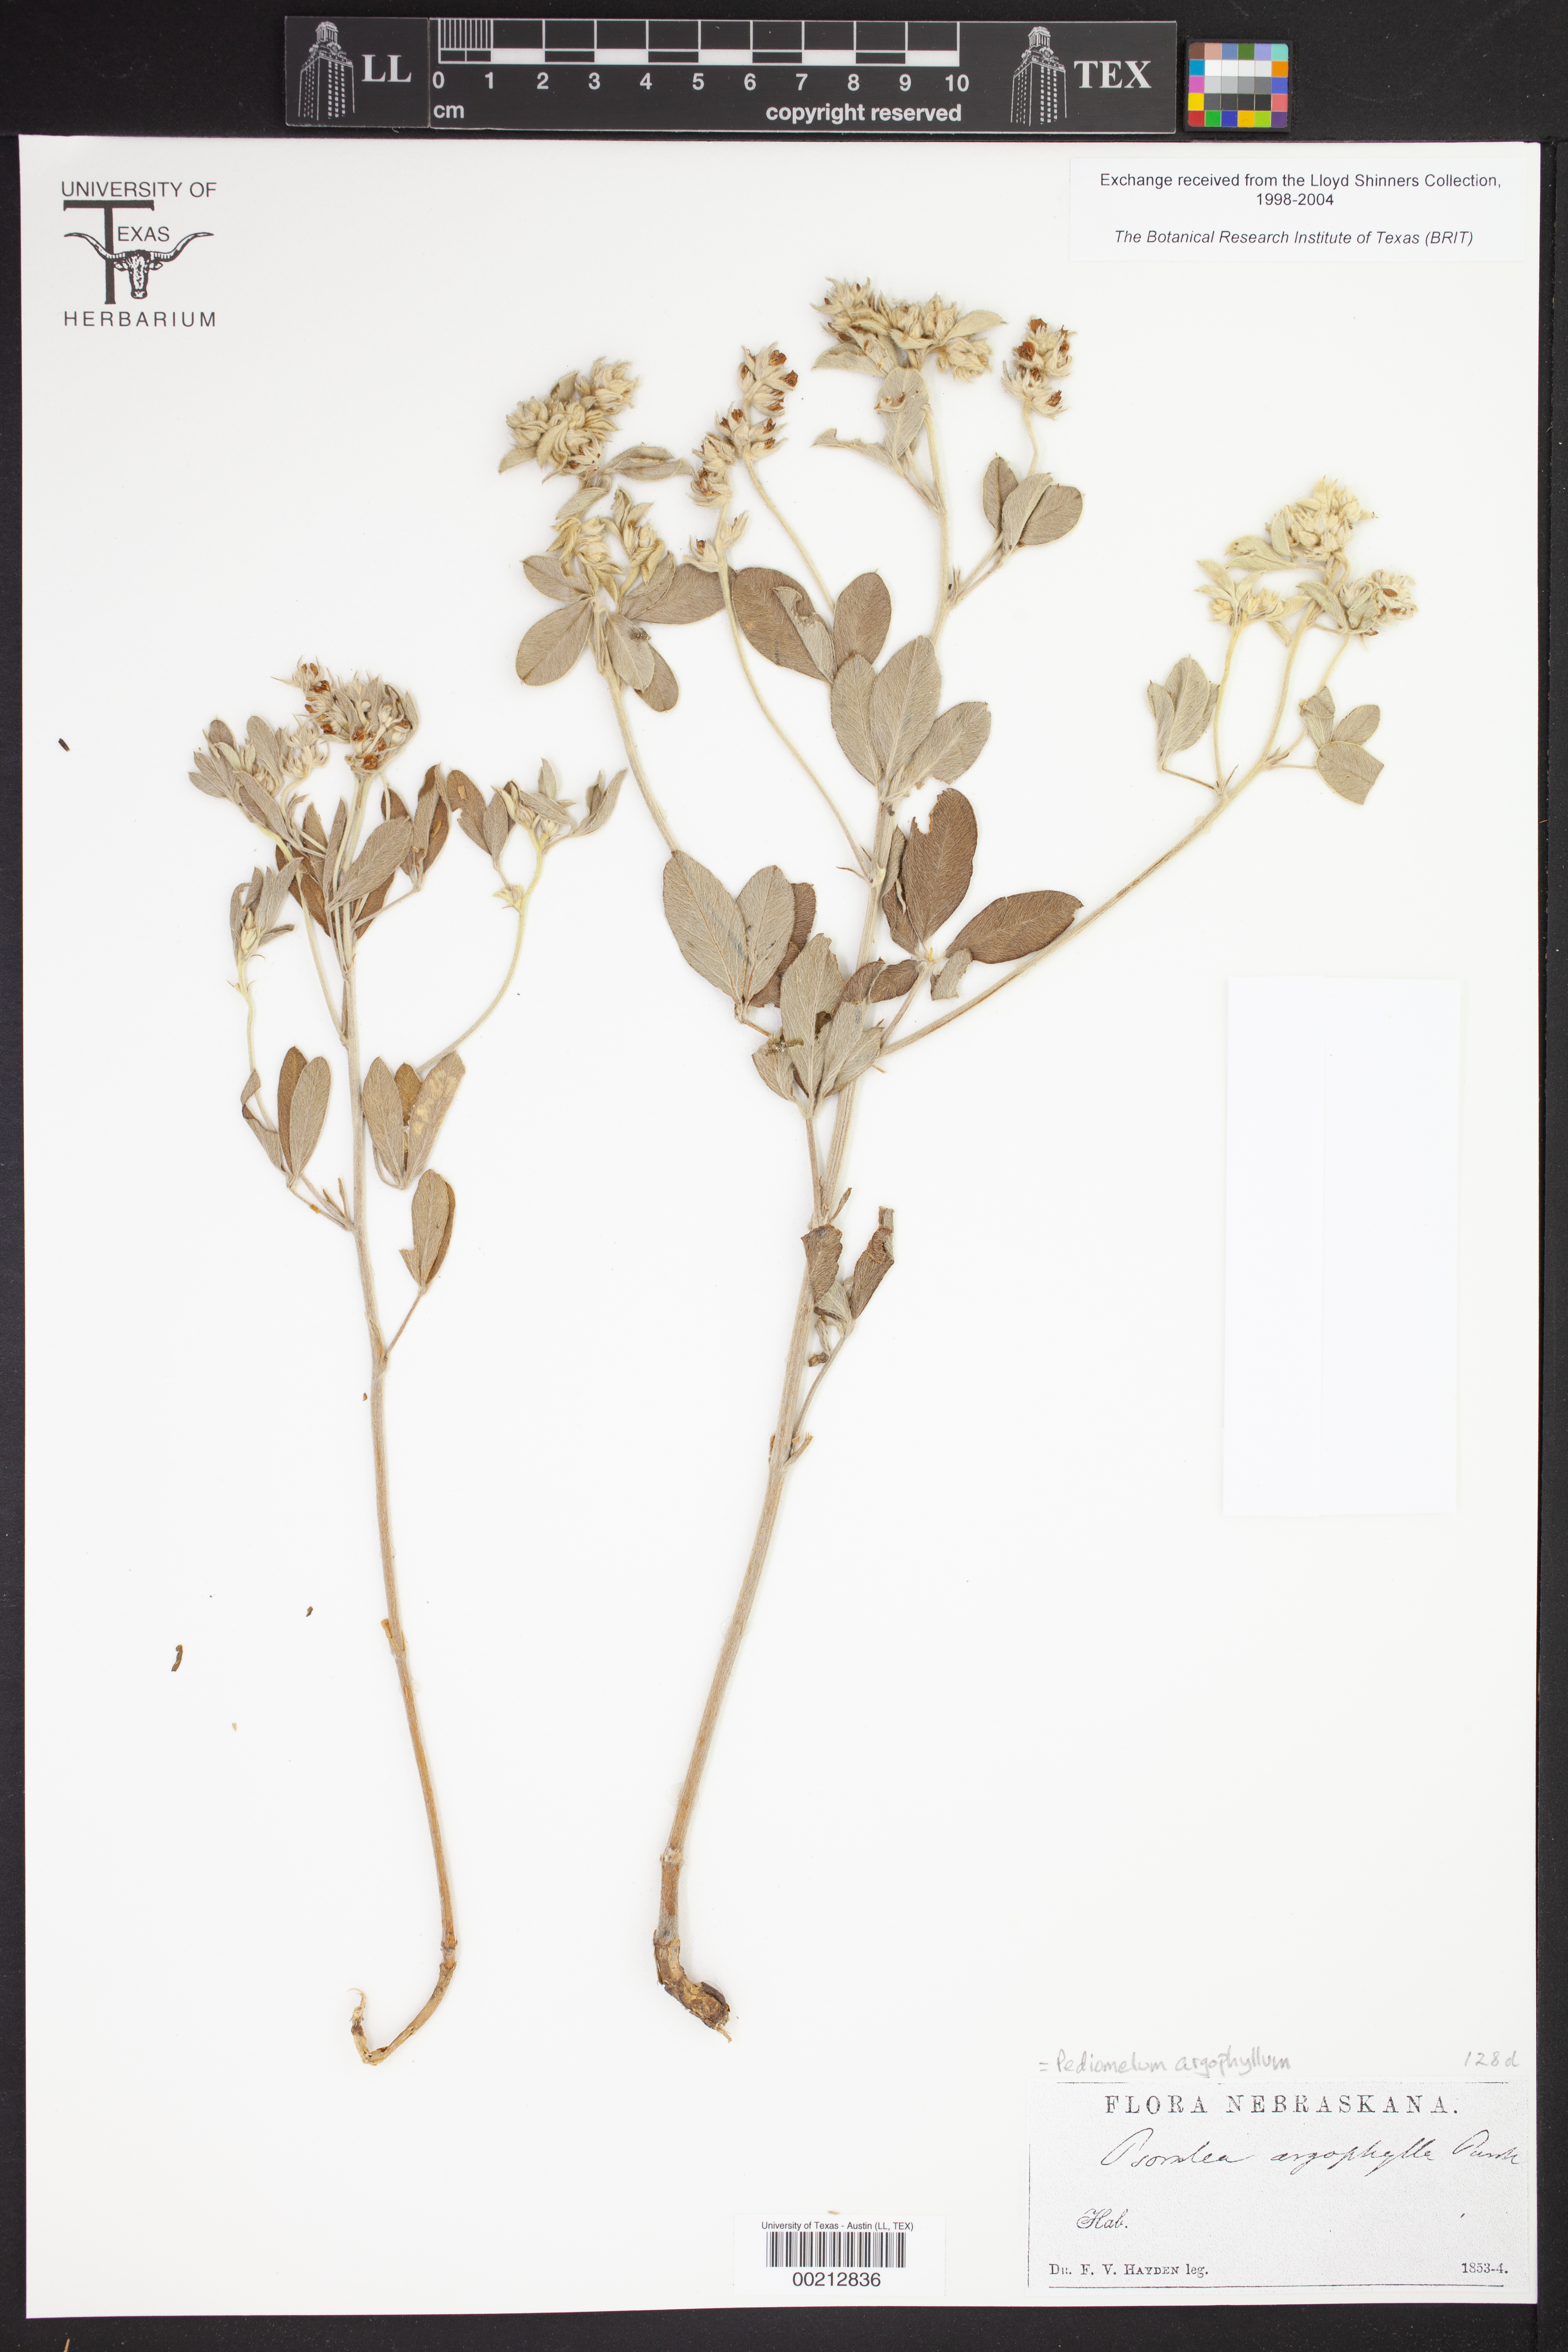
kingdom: Plantae
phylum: Tracheophyta
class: Magnoliopsida
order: Fabales
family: Fabaceae
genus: Pediomelum
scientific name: Pediomelum argophyllum
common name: Silver-leaved indian breadroot
